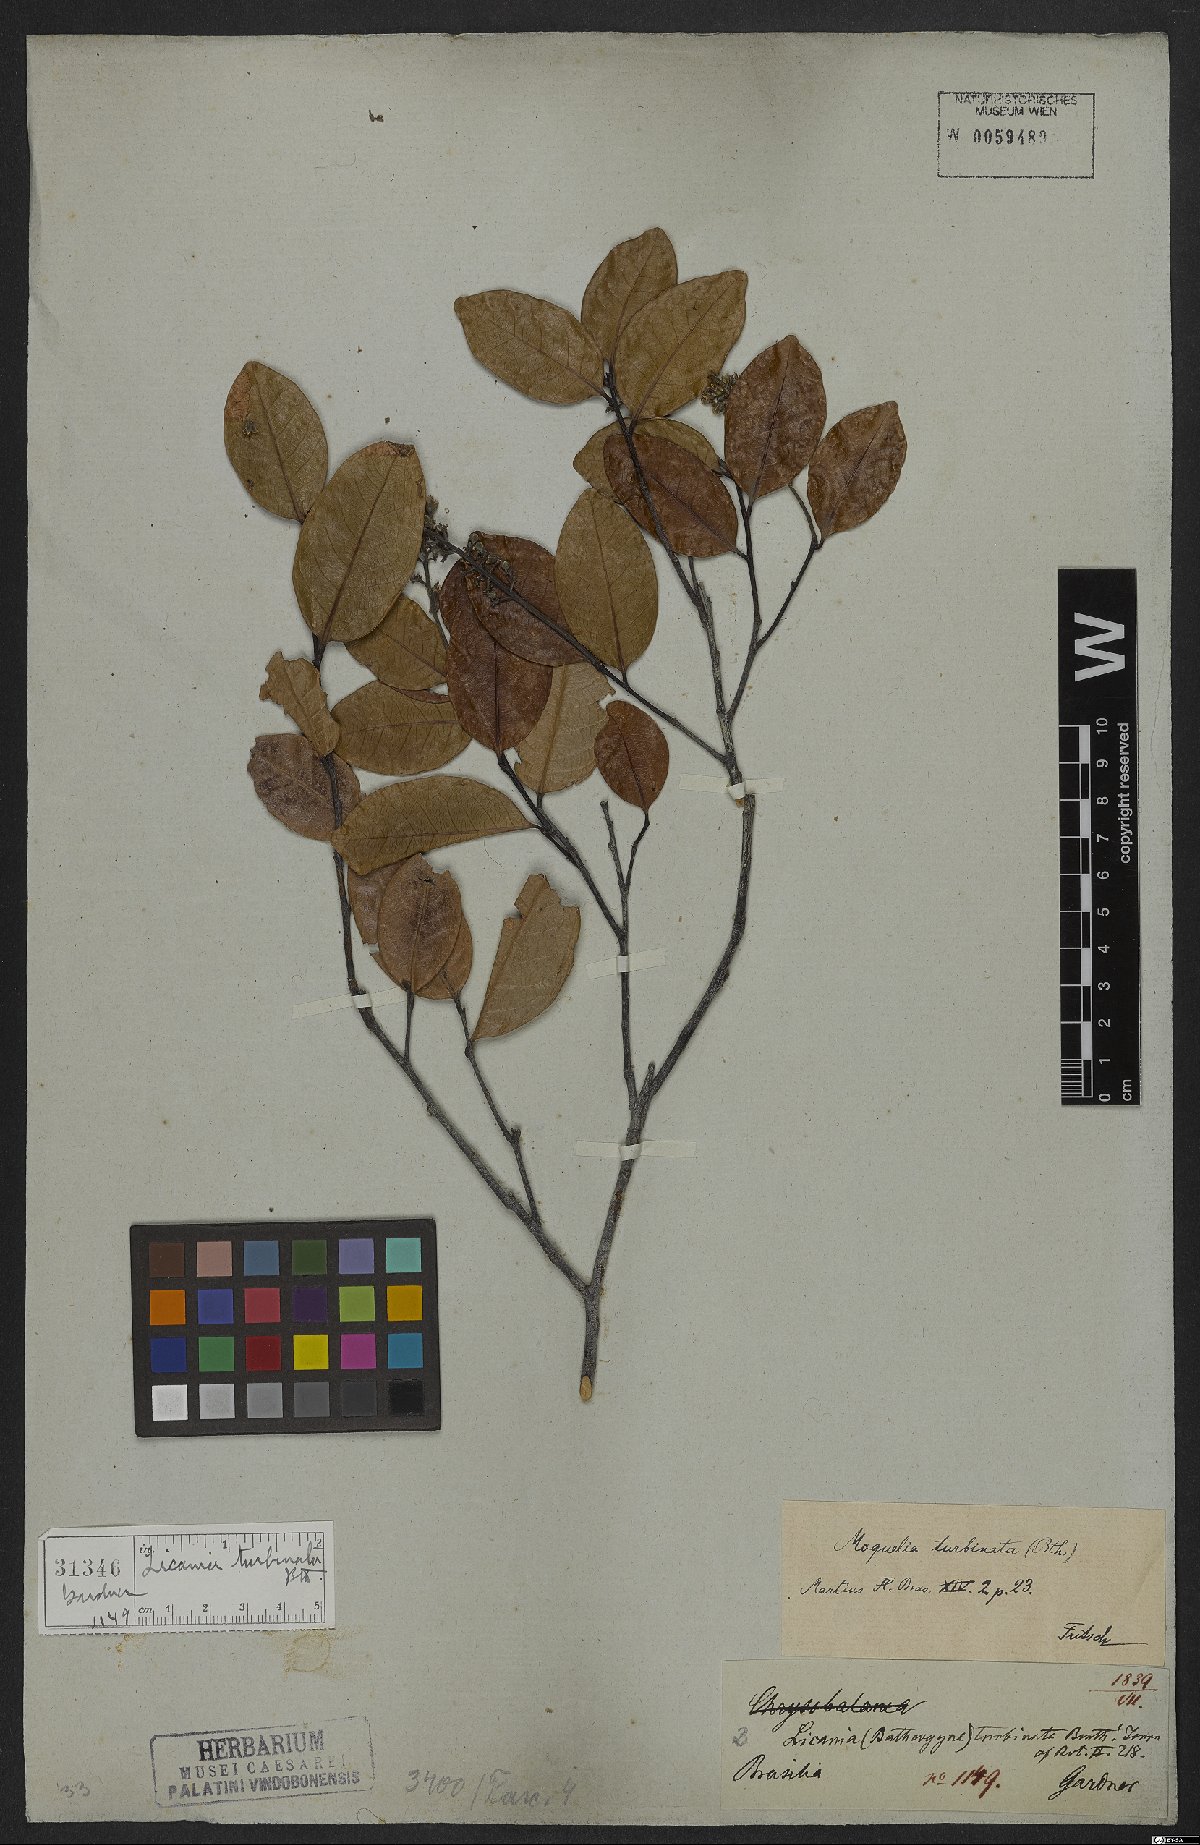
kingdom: Plantae
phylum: Tracheophyta
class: Magnoliopsida
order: Malpighiales
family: Chrysobalanaceae
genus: Leptobalanus
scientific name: Leptobalanus turbinatus
